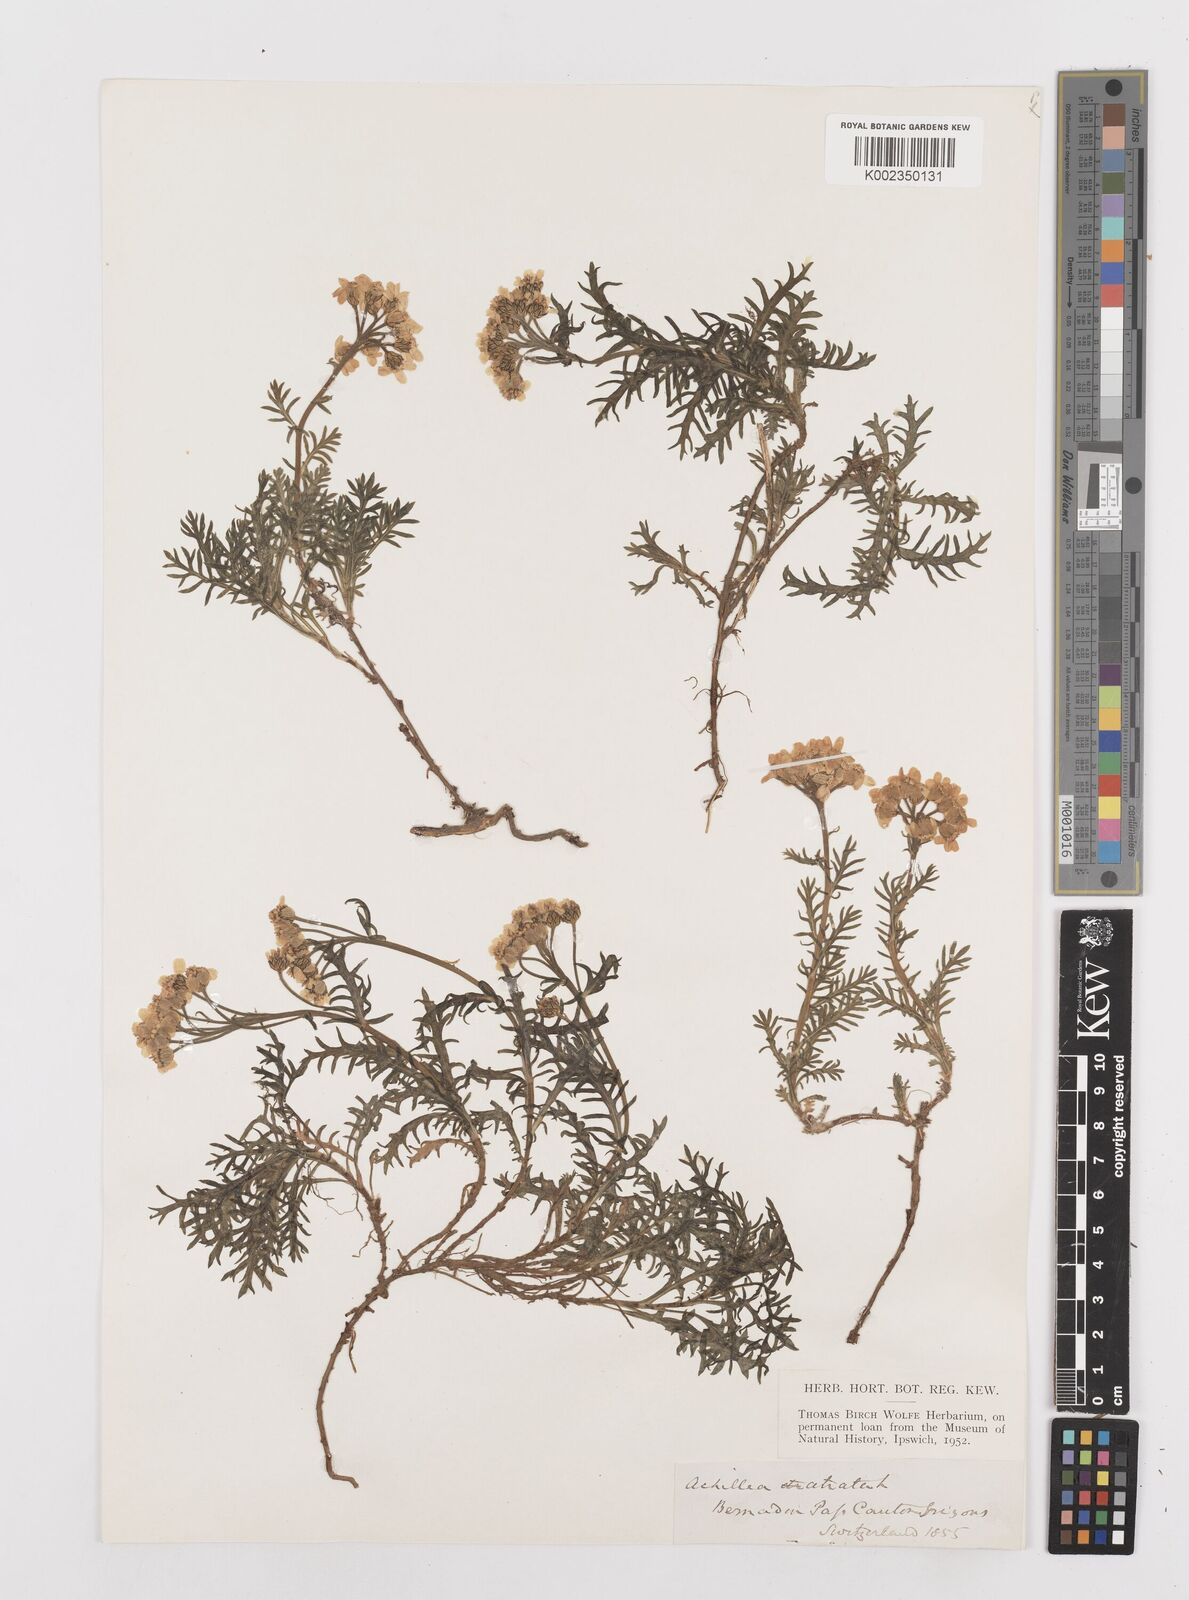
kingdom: Plantae
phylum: Tracheophyta
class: Magnoliopsida
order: Asterales
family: Asteraceae
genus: Achillea
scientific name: Achillea atrata
